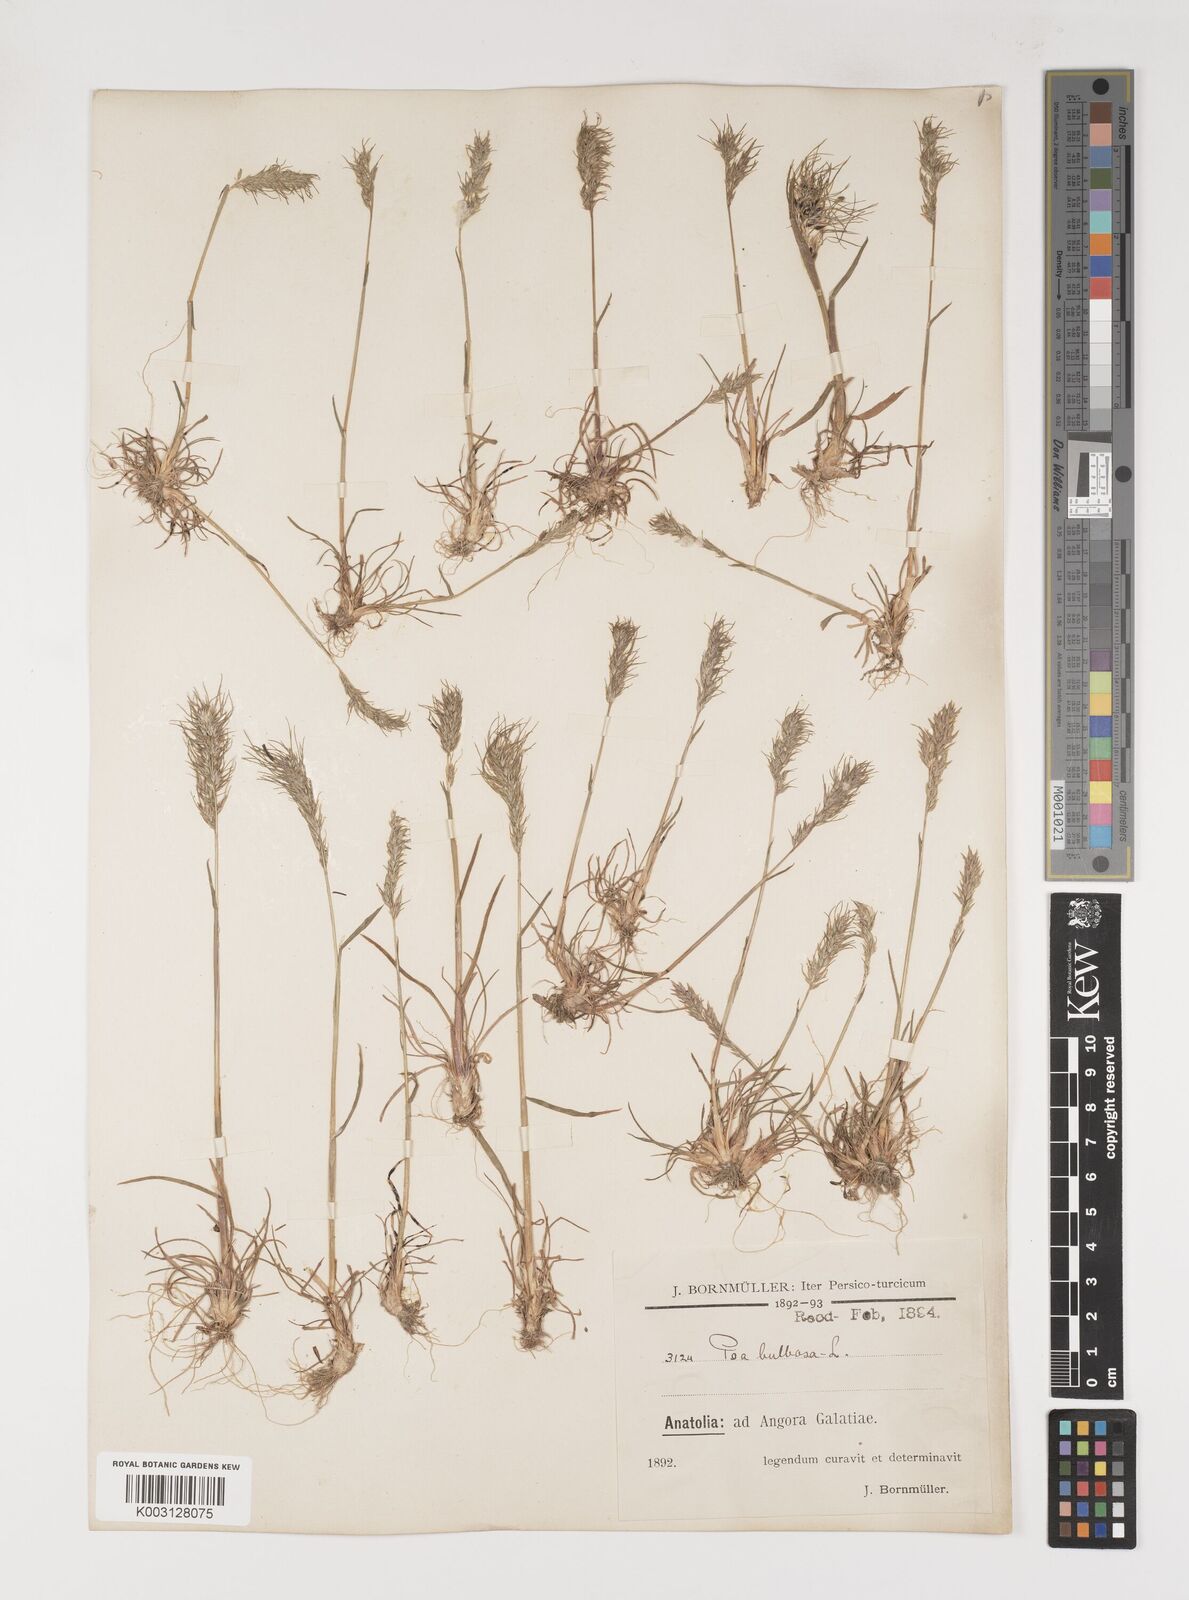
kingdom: Plantae
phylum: Tracheophyta
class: Liliopsida
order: Poales
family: Poaceae
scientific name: Poaceae
